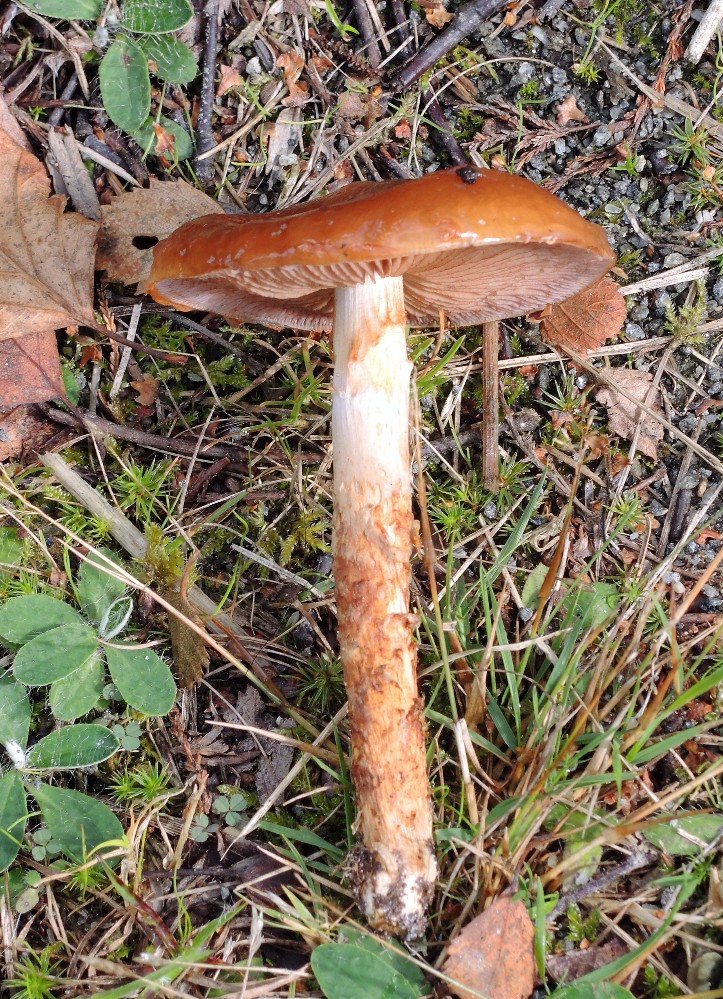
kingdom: Fungi
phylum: Basidiomycota
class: Agaricomycetes
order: Agaricales
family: Cortinariaceae
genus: Cortinarius
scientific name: Cortinarius
